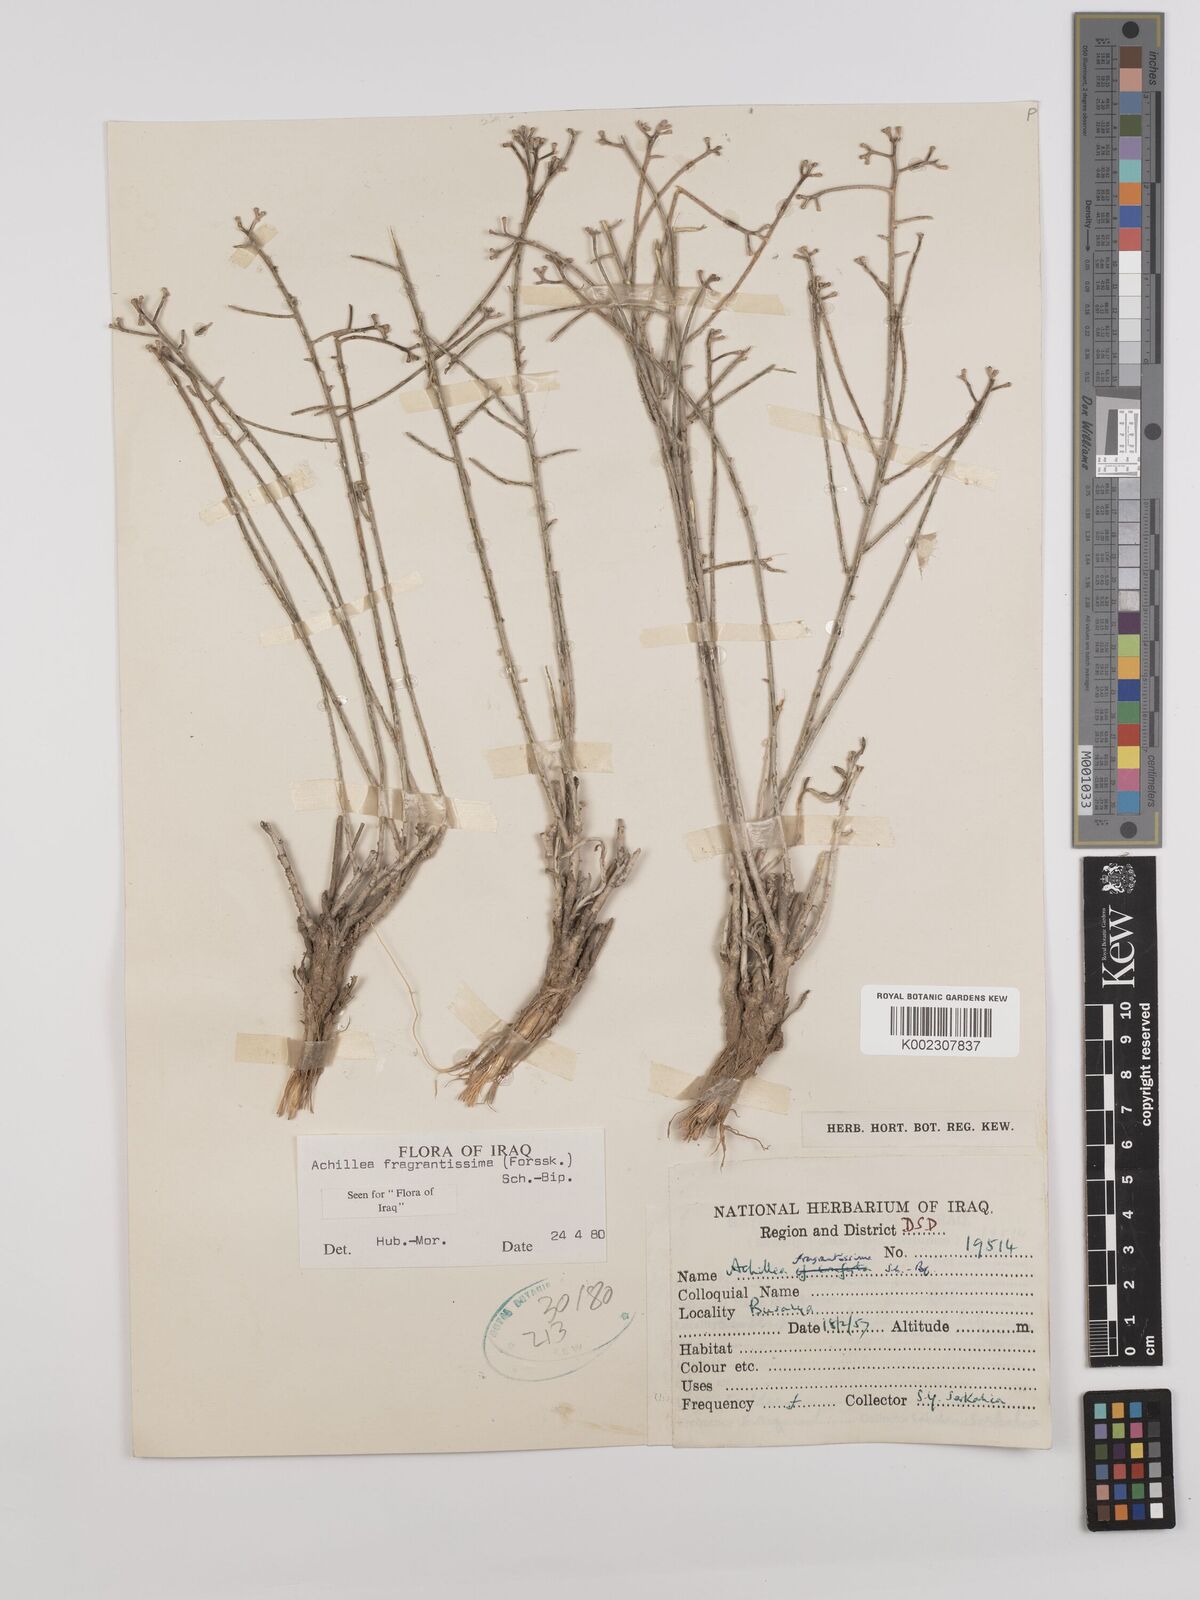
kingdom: Plantae
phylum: Tracheophyta
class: Magnoliopsida
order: Asterales
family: Asteraceae
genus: Achillea
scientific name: Achillea fragrantissima
